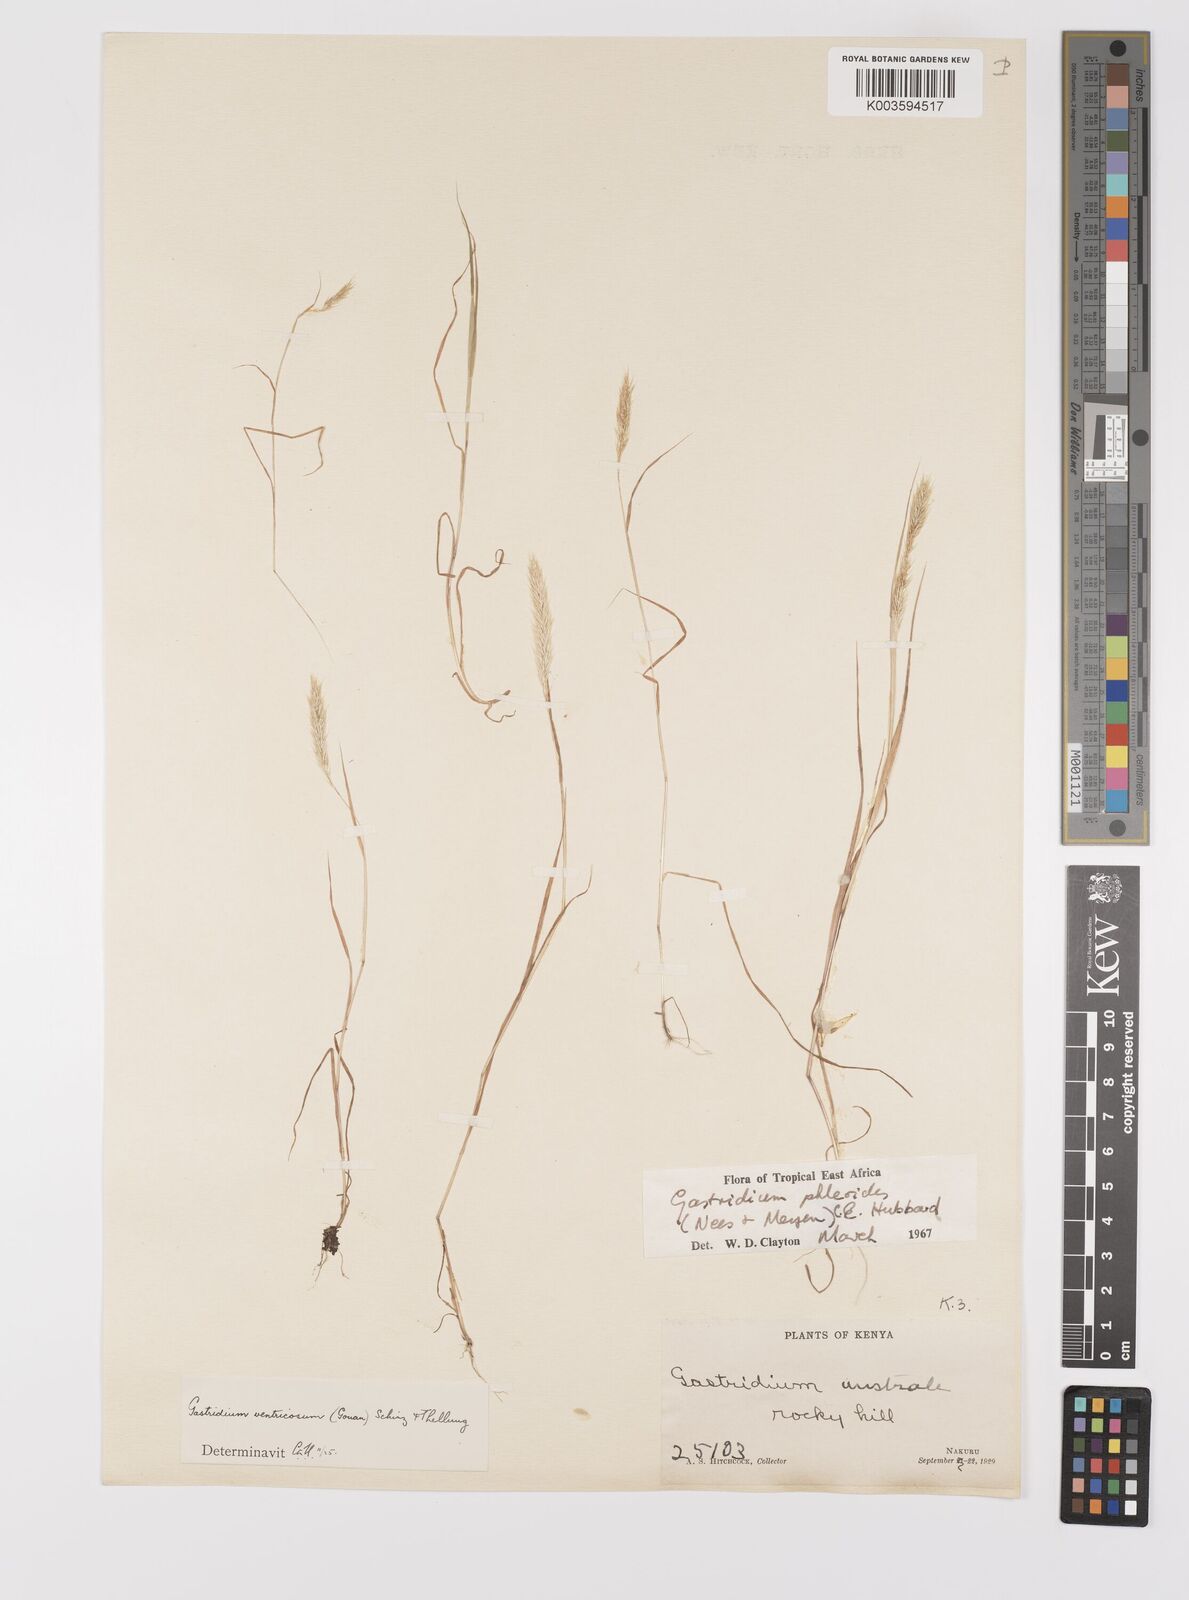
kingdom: Plantae
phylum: Tracheophyta
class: Liliopsida
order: Poales
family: Poaceae
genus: Gastridium
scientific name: Gastridium phleoides
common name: Nit grass
